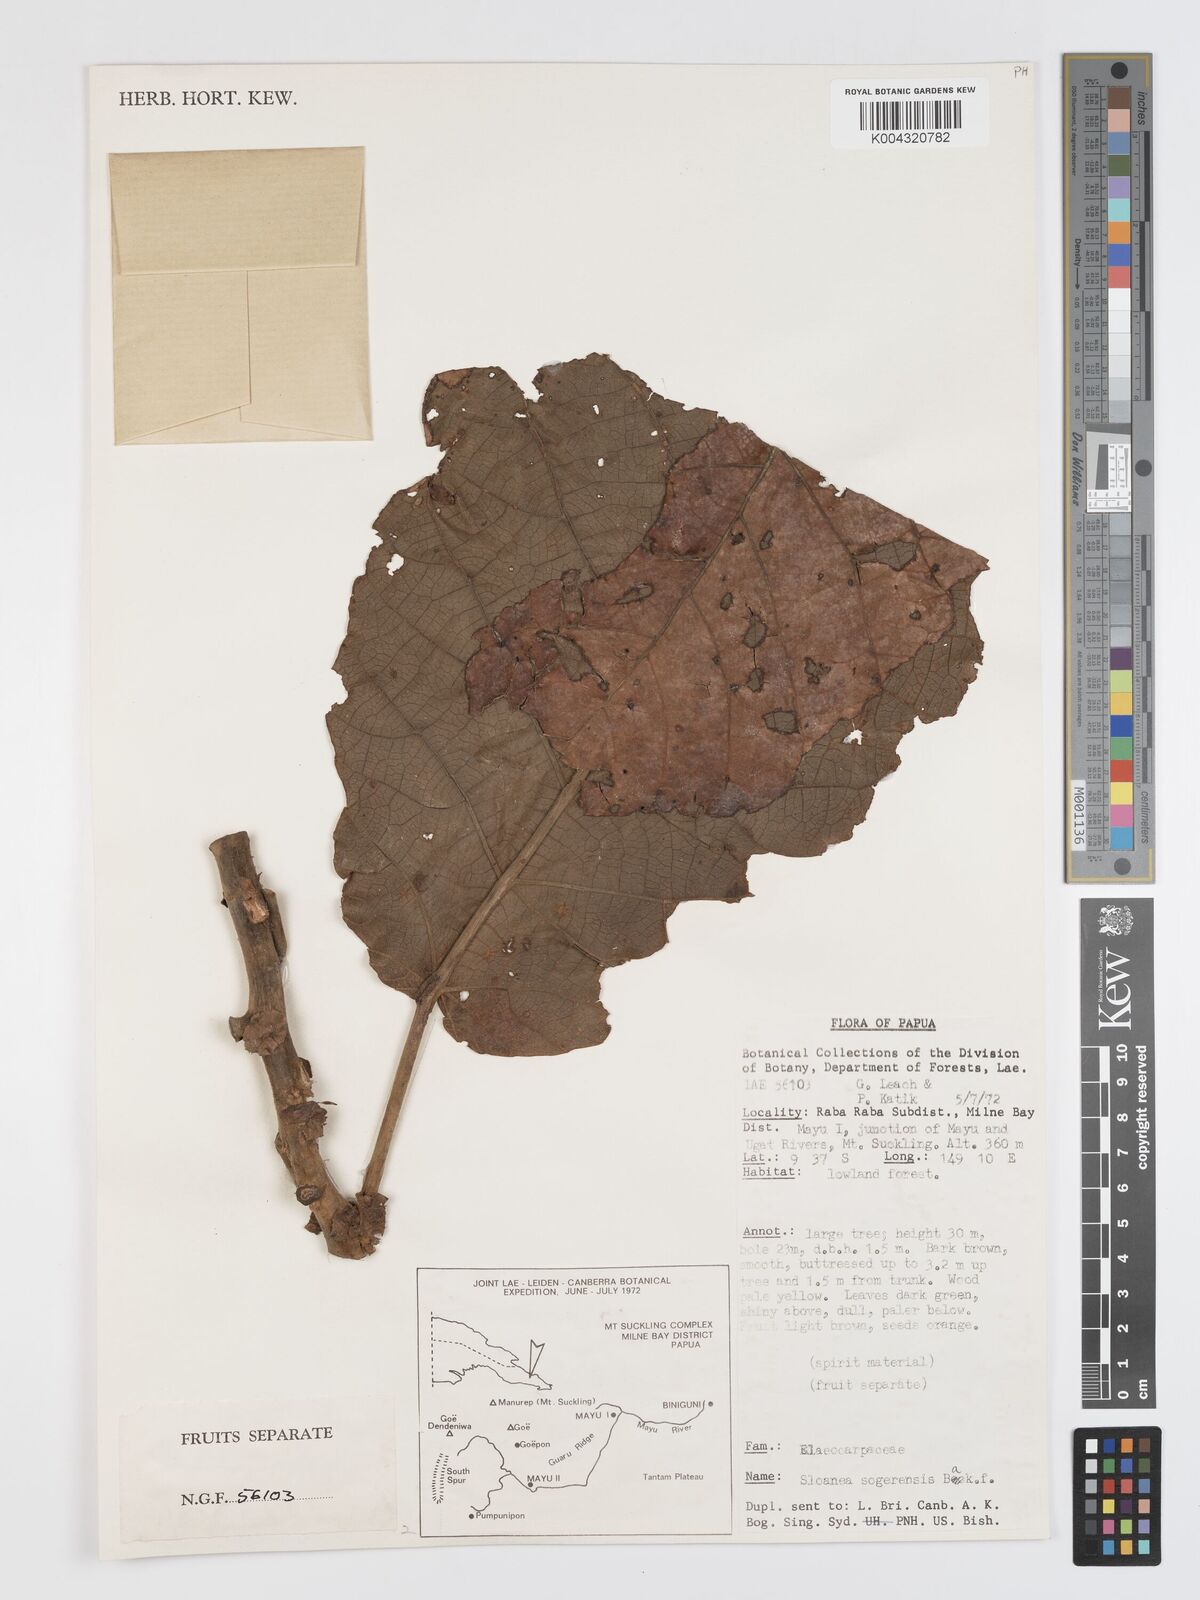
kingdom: Plantae
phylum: Tracheophyta
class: Magnoliopsida
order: Oxalidales
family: Elaeocarpaceae
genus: Sloanea
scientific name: Sloanea sogerensis
